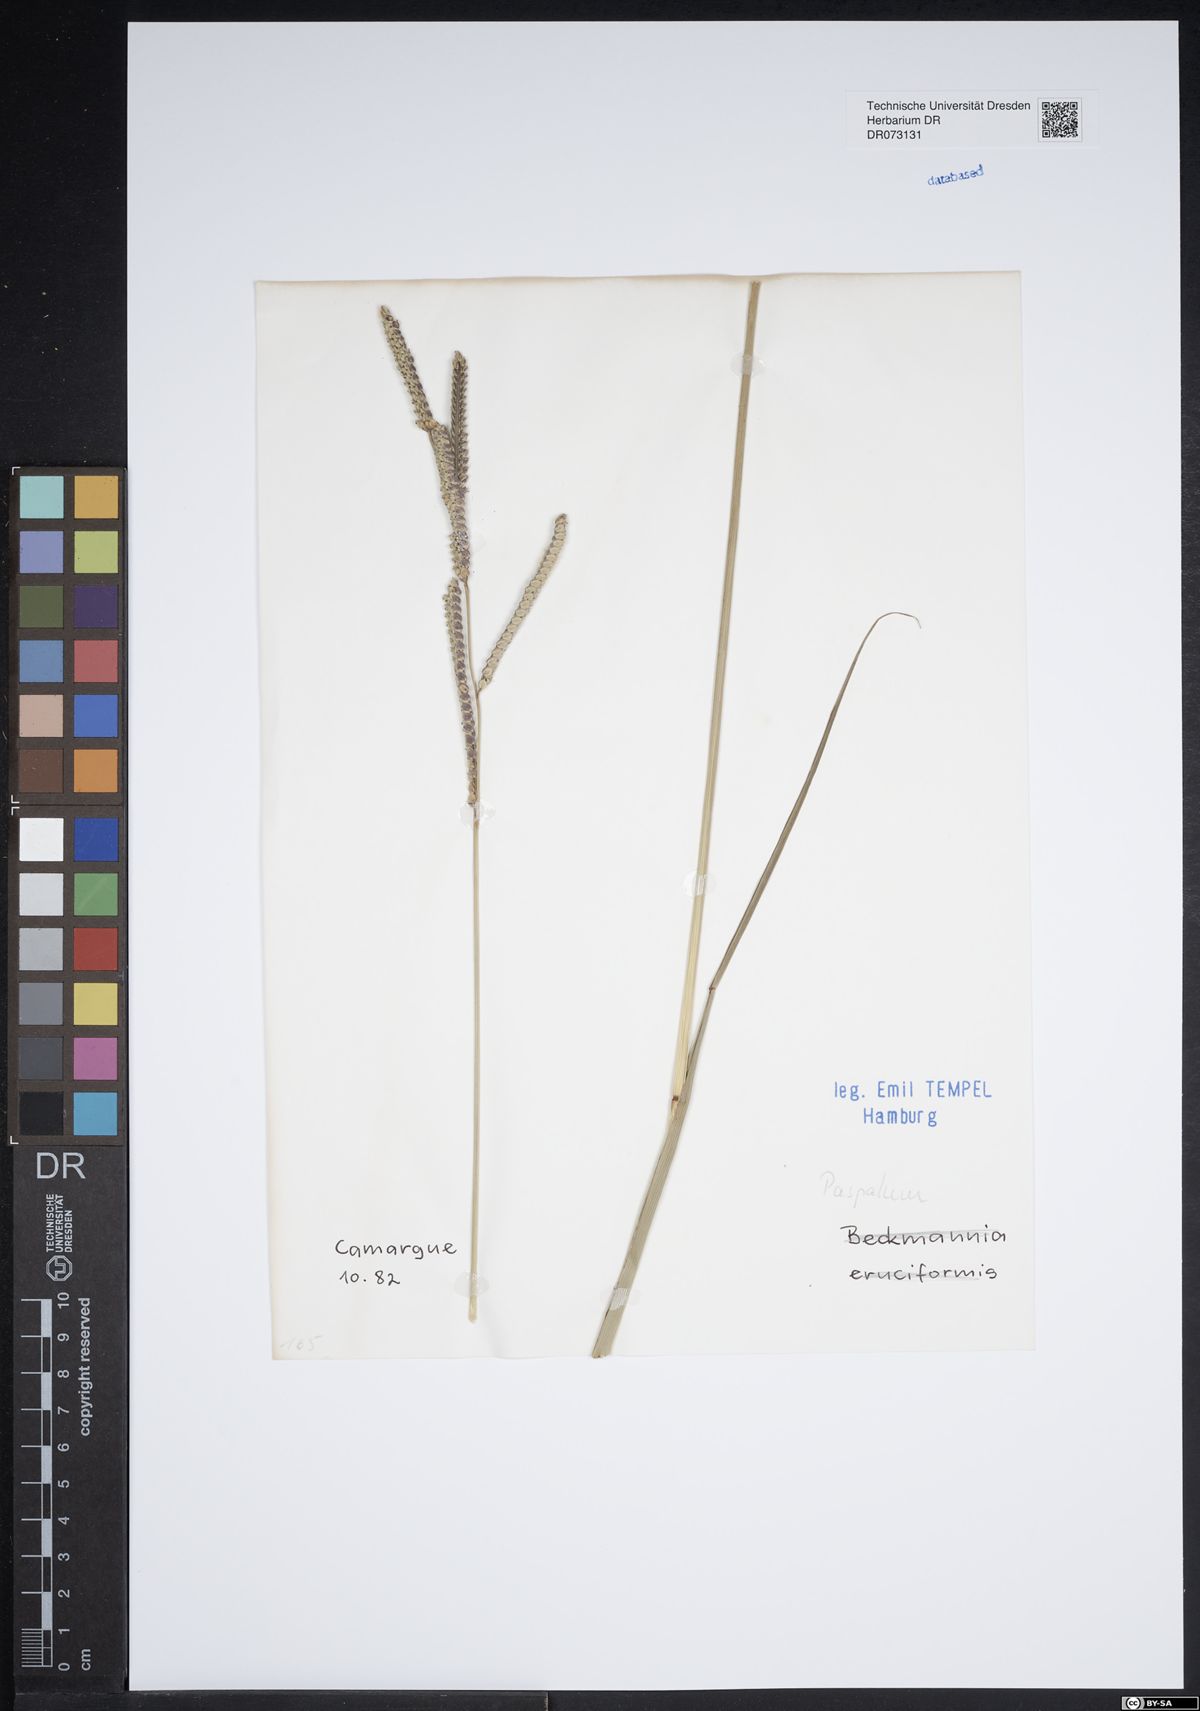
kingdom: Plantae
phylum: Tracheophyta
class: Liliopsida
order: Poales
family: Poaceae
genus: Paspalum
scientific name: Paspalum
